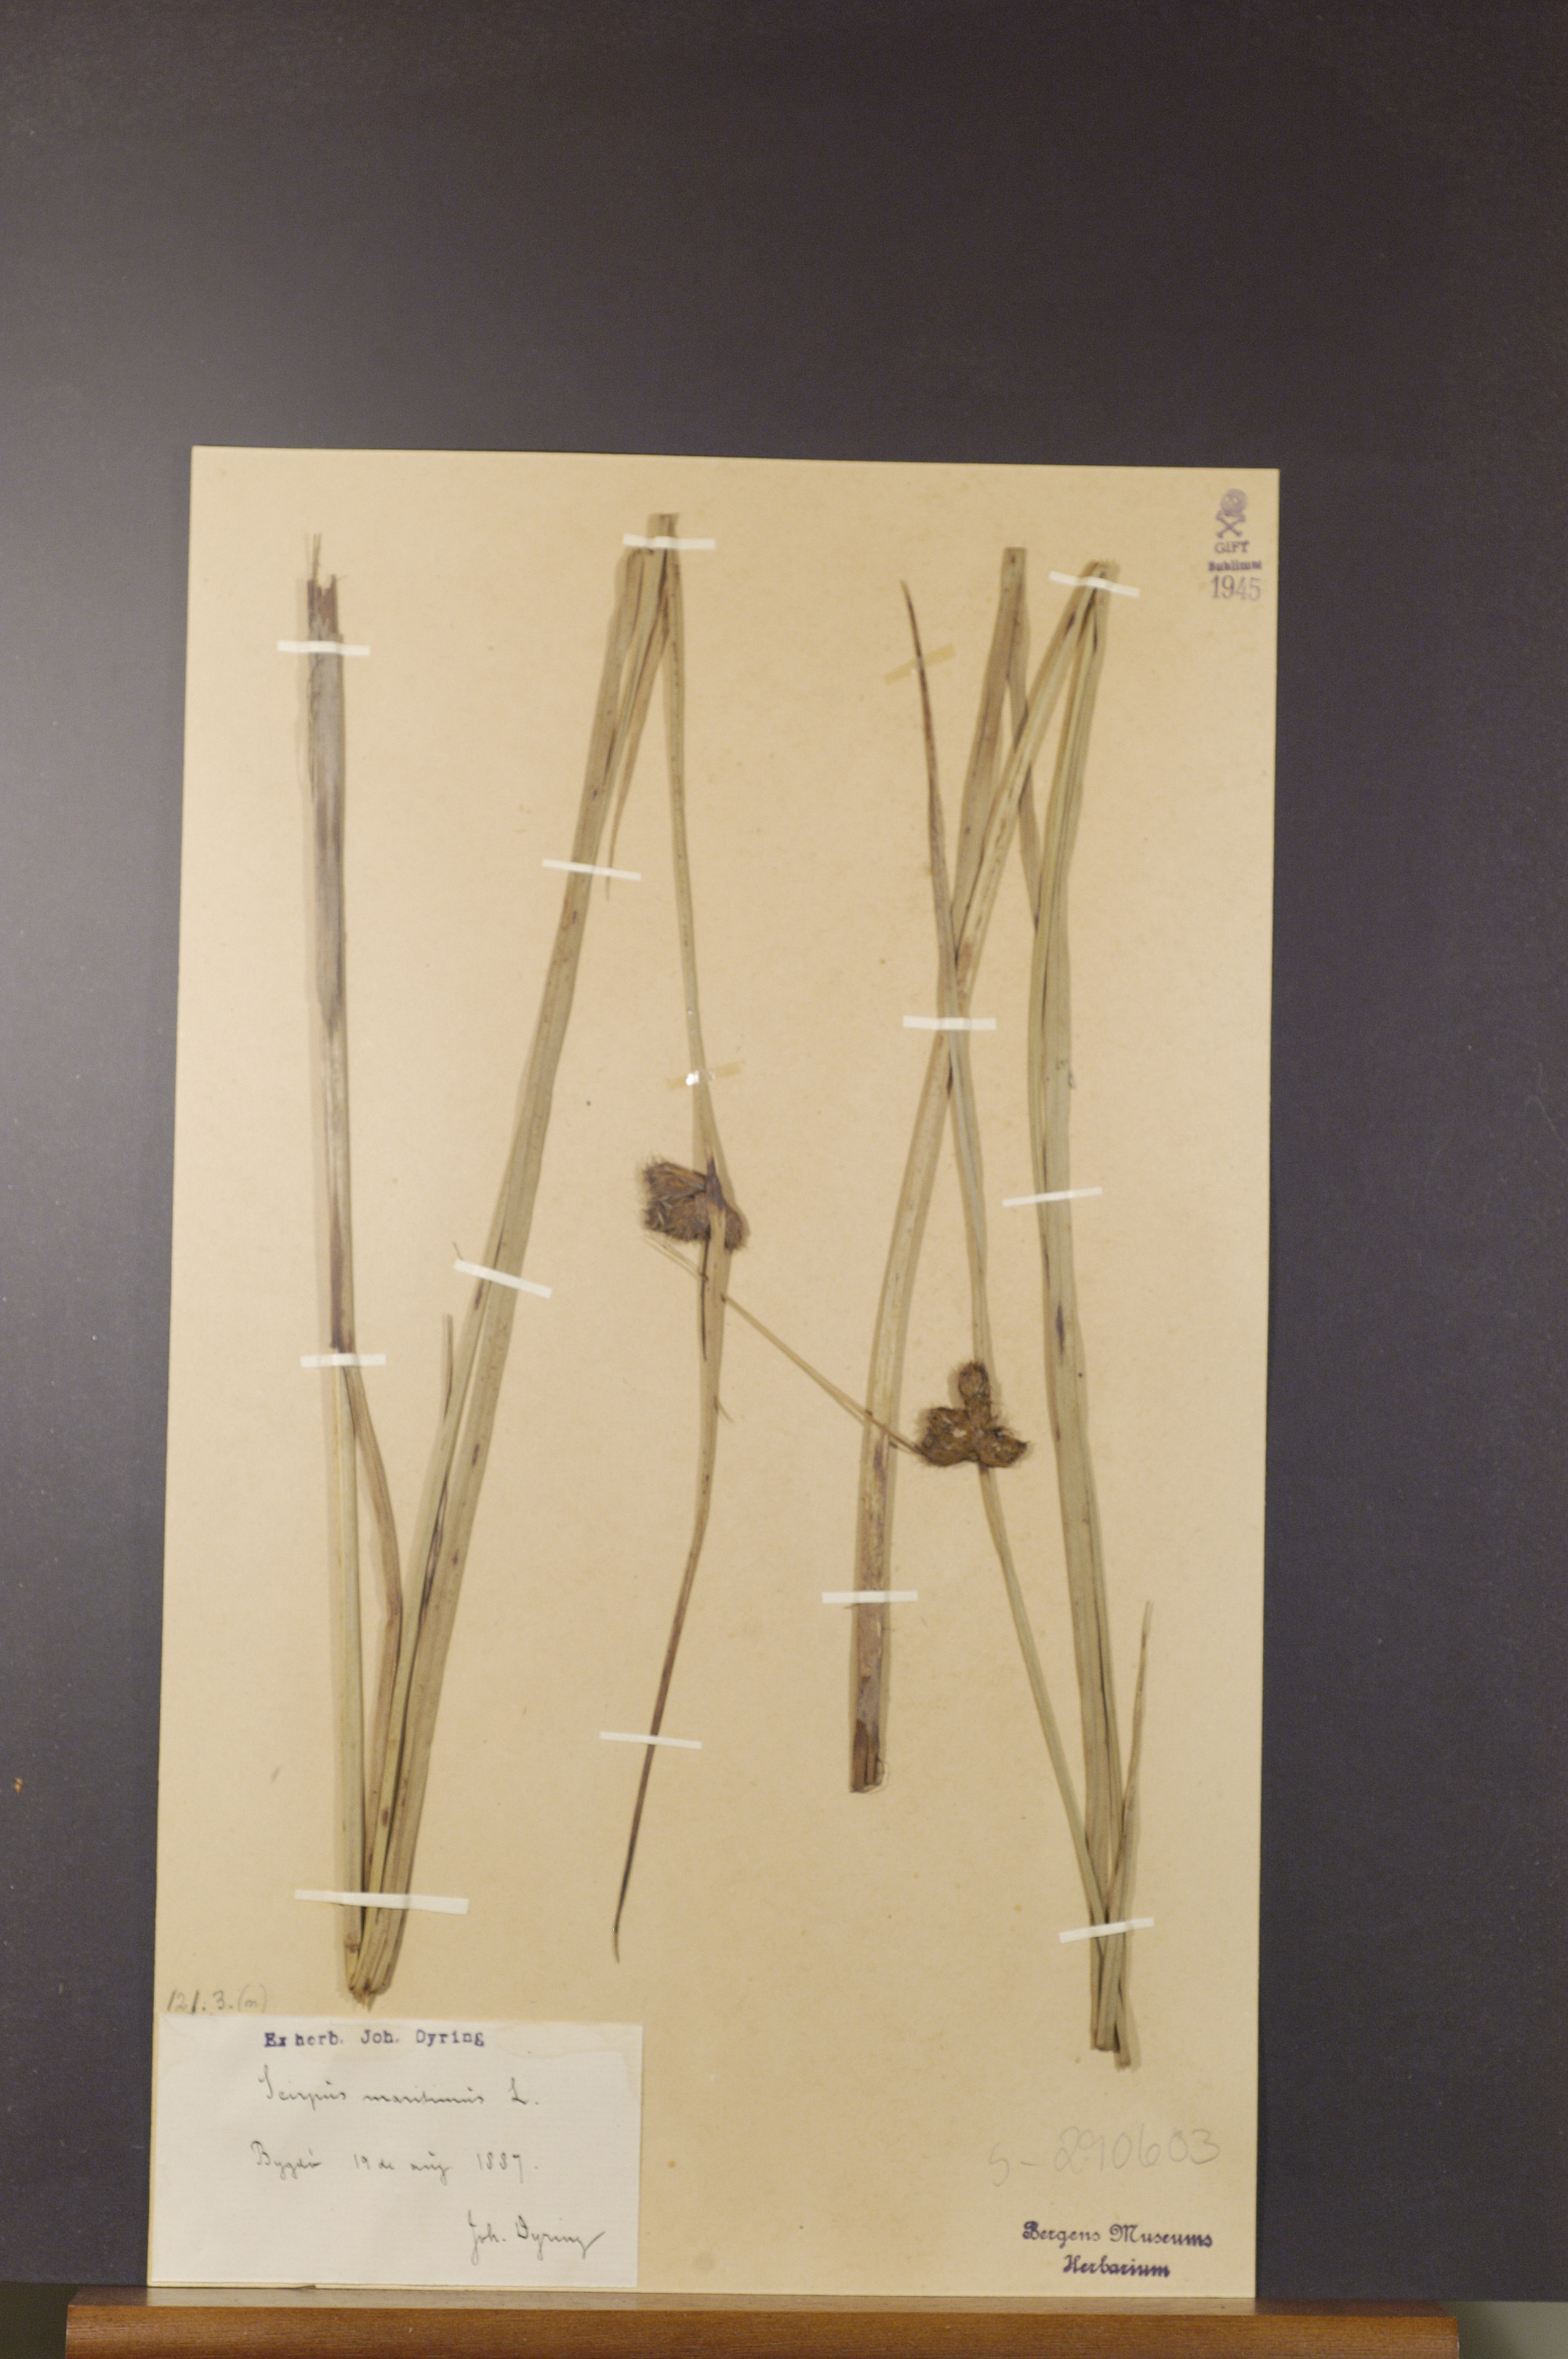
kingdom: Plantae
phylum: Tracheophyta
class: Liliopsida
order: Poales
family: Cyperaceae
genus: Bolboschoenus
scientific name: Bolboschoenus maritimus
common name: Sea club-rush
